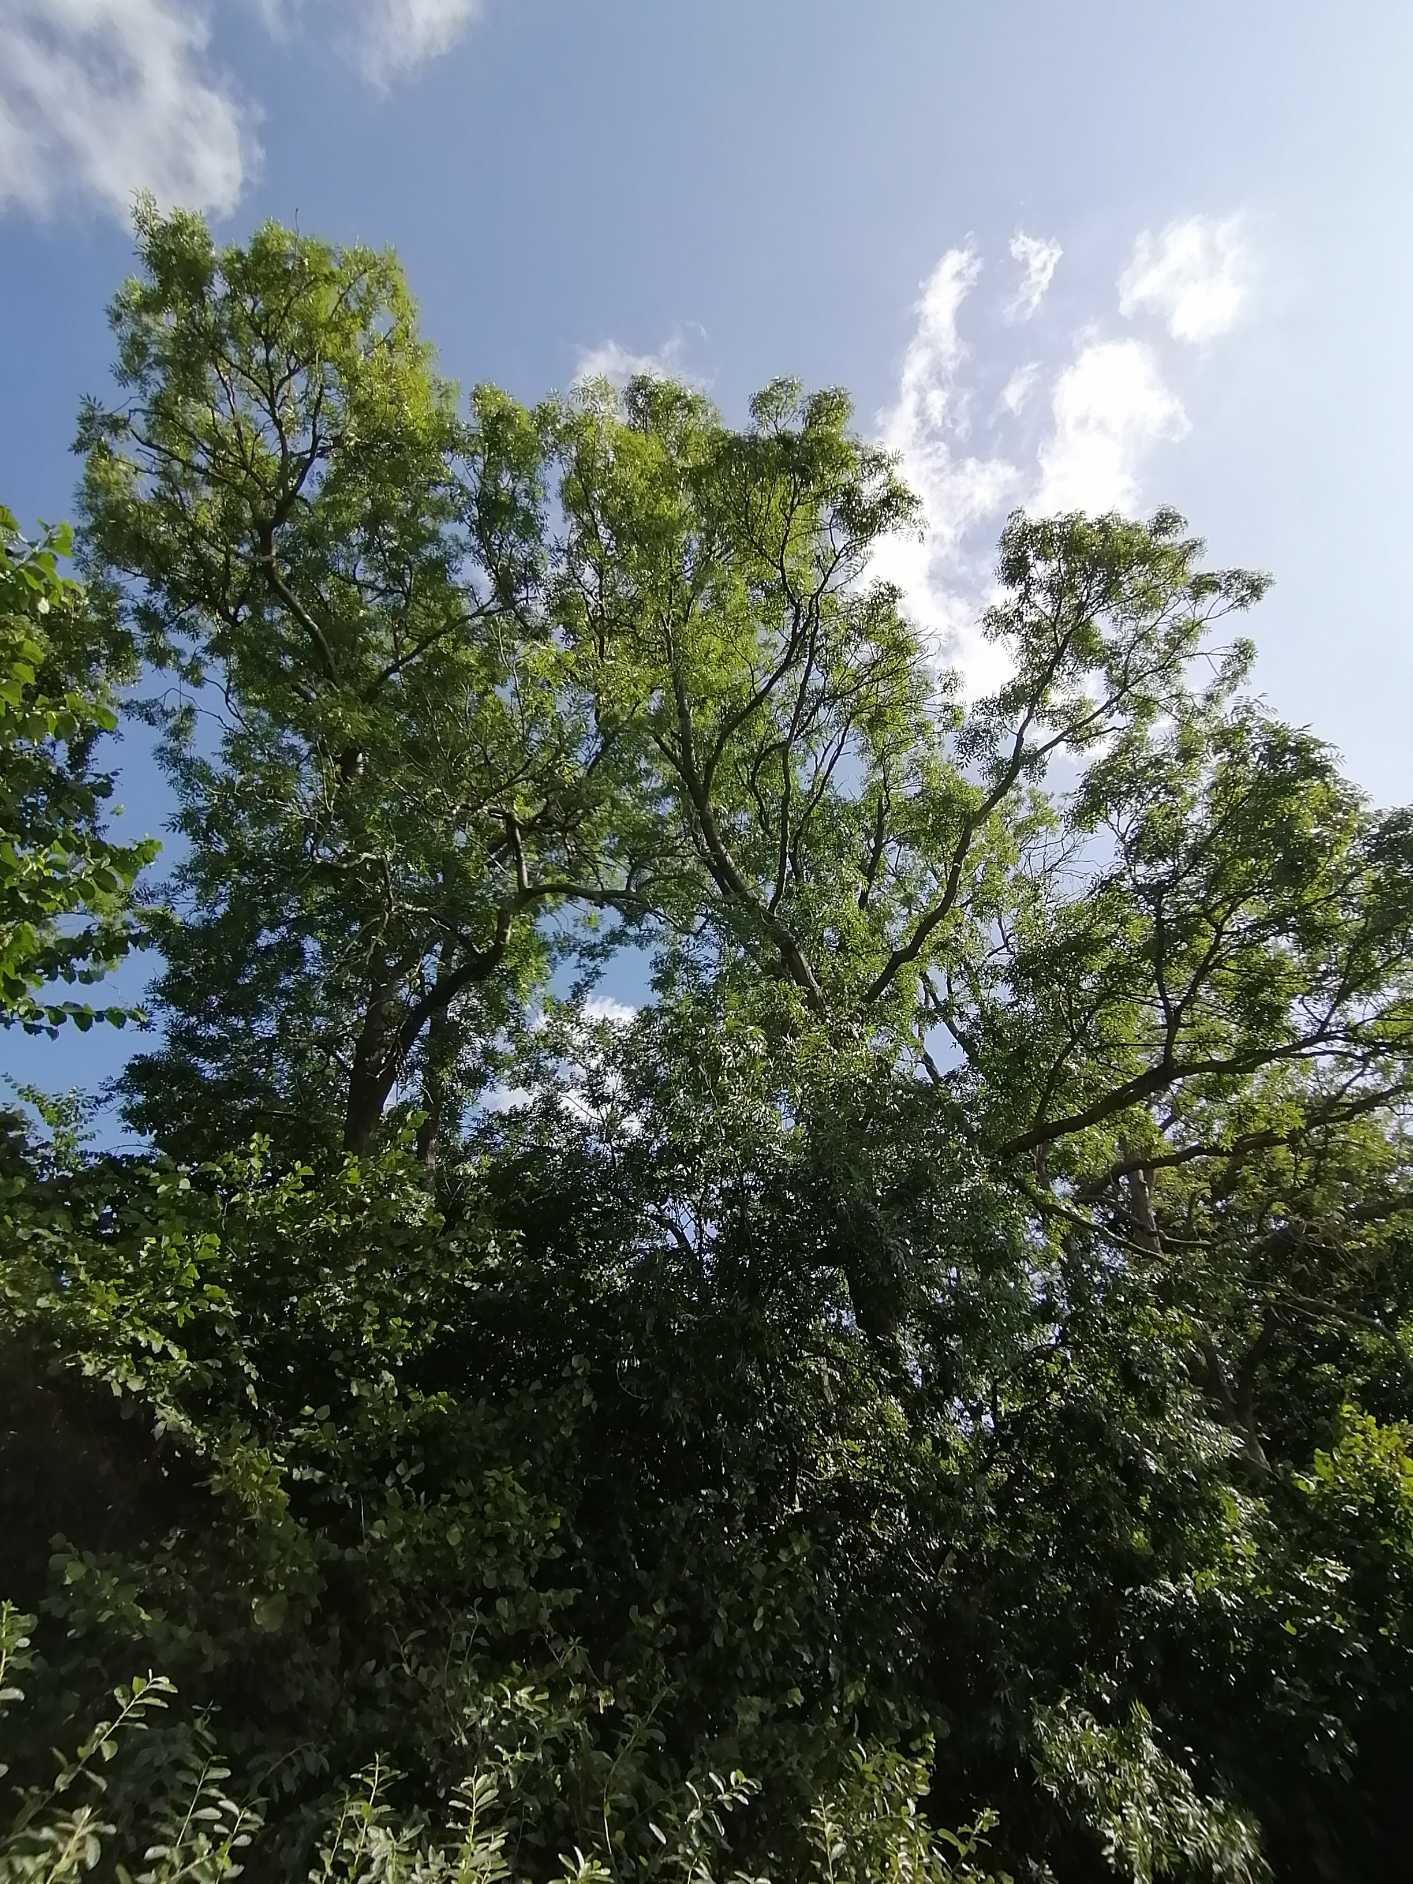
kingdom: Plantae
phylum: Tracheophyta
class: Magnoliopsida
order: Lamiales
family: Oleaceae
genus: Fraxinus
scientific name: Fraxinus excelsior
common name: Ask
